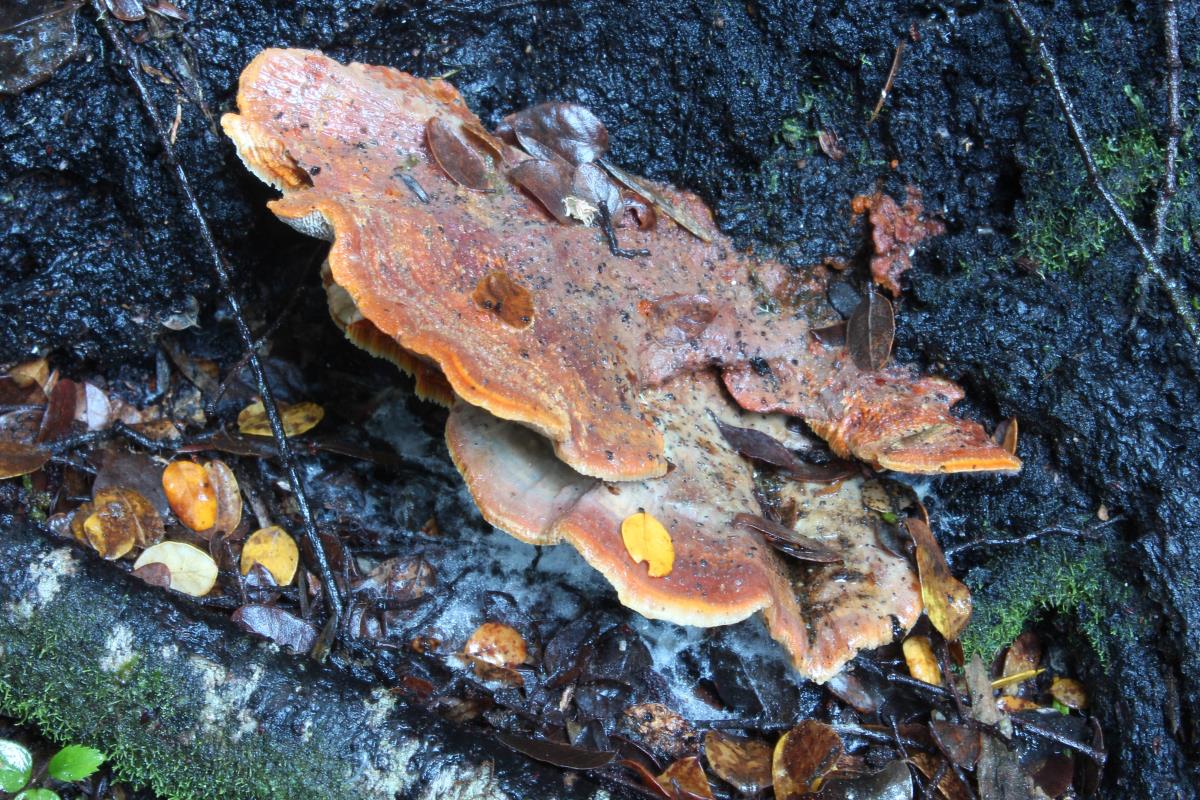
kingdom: Fungi
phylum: Basidiomycota
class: Agaricomycetes
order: Polyporales
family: Meripilaceae
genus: Rigidoporus
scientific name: Rigidoporus laetus
